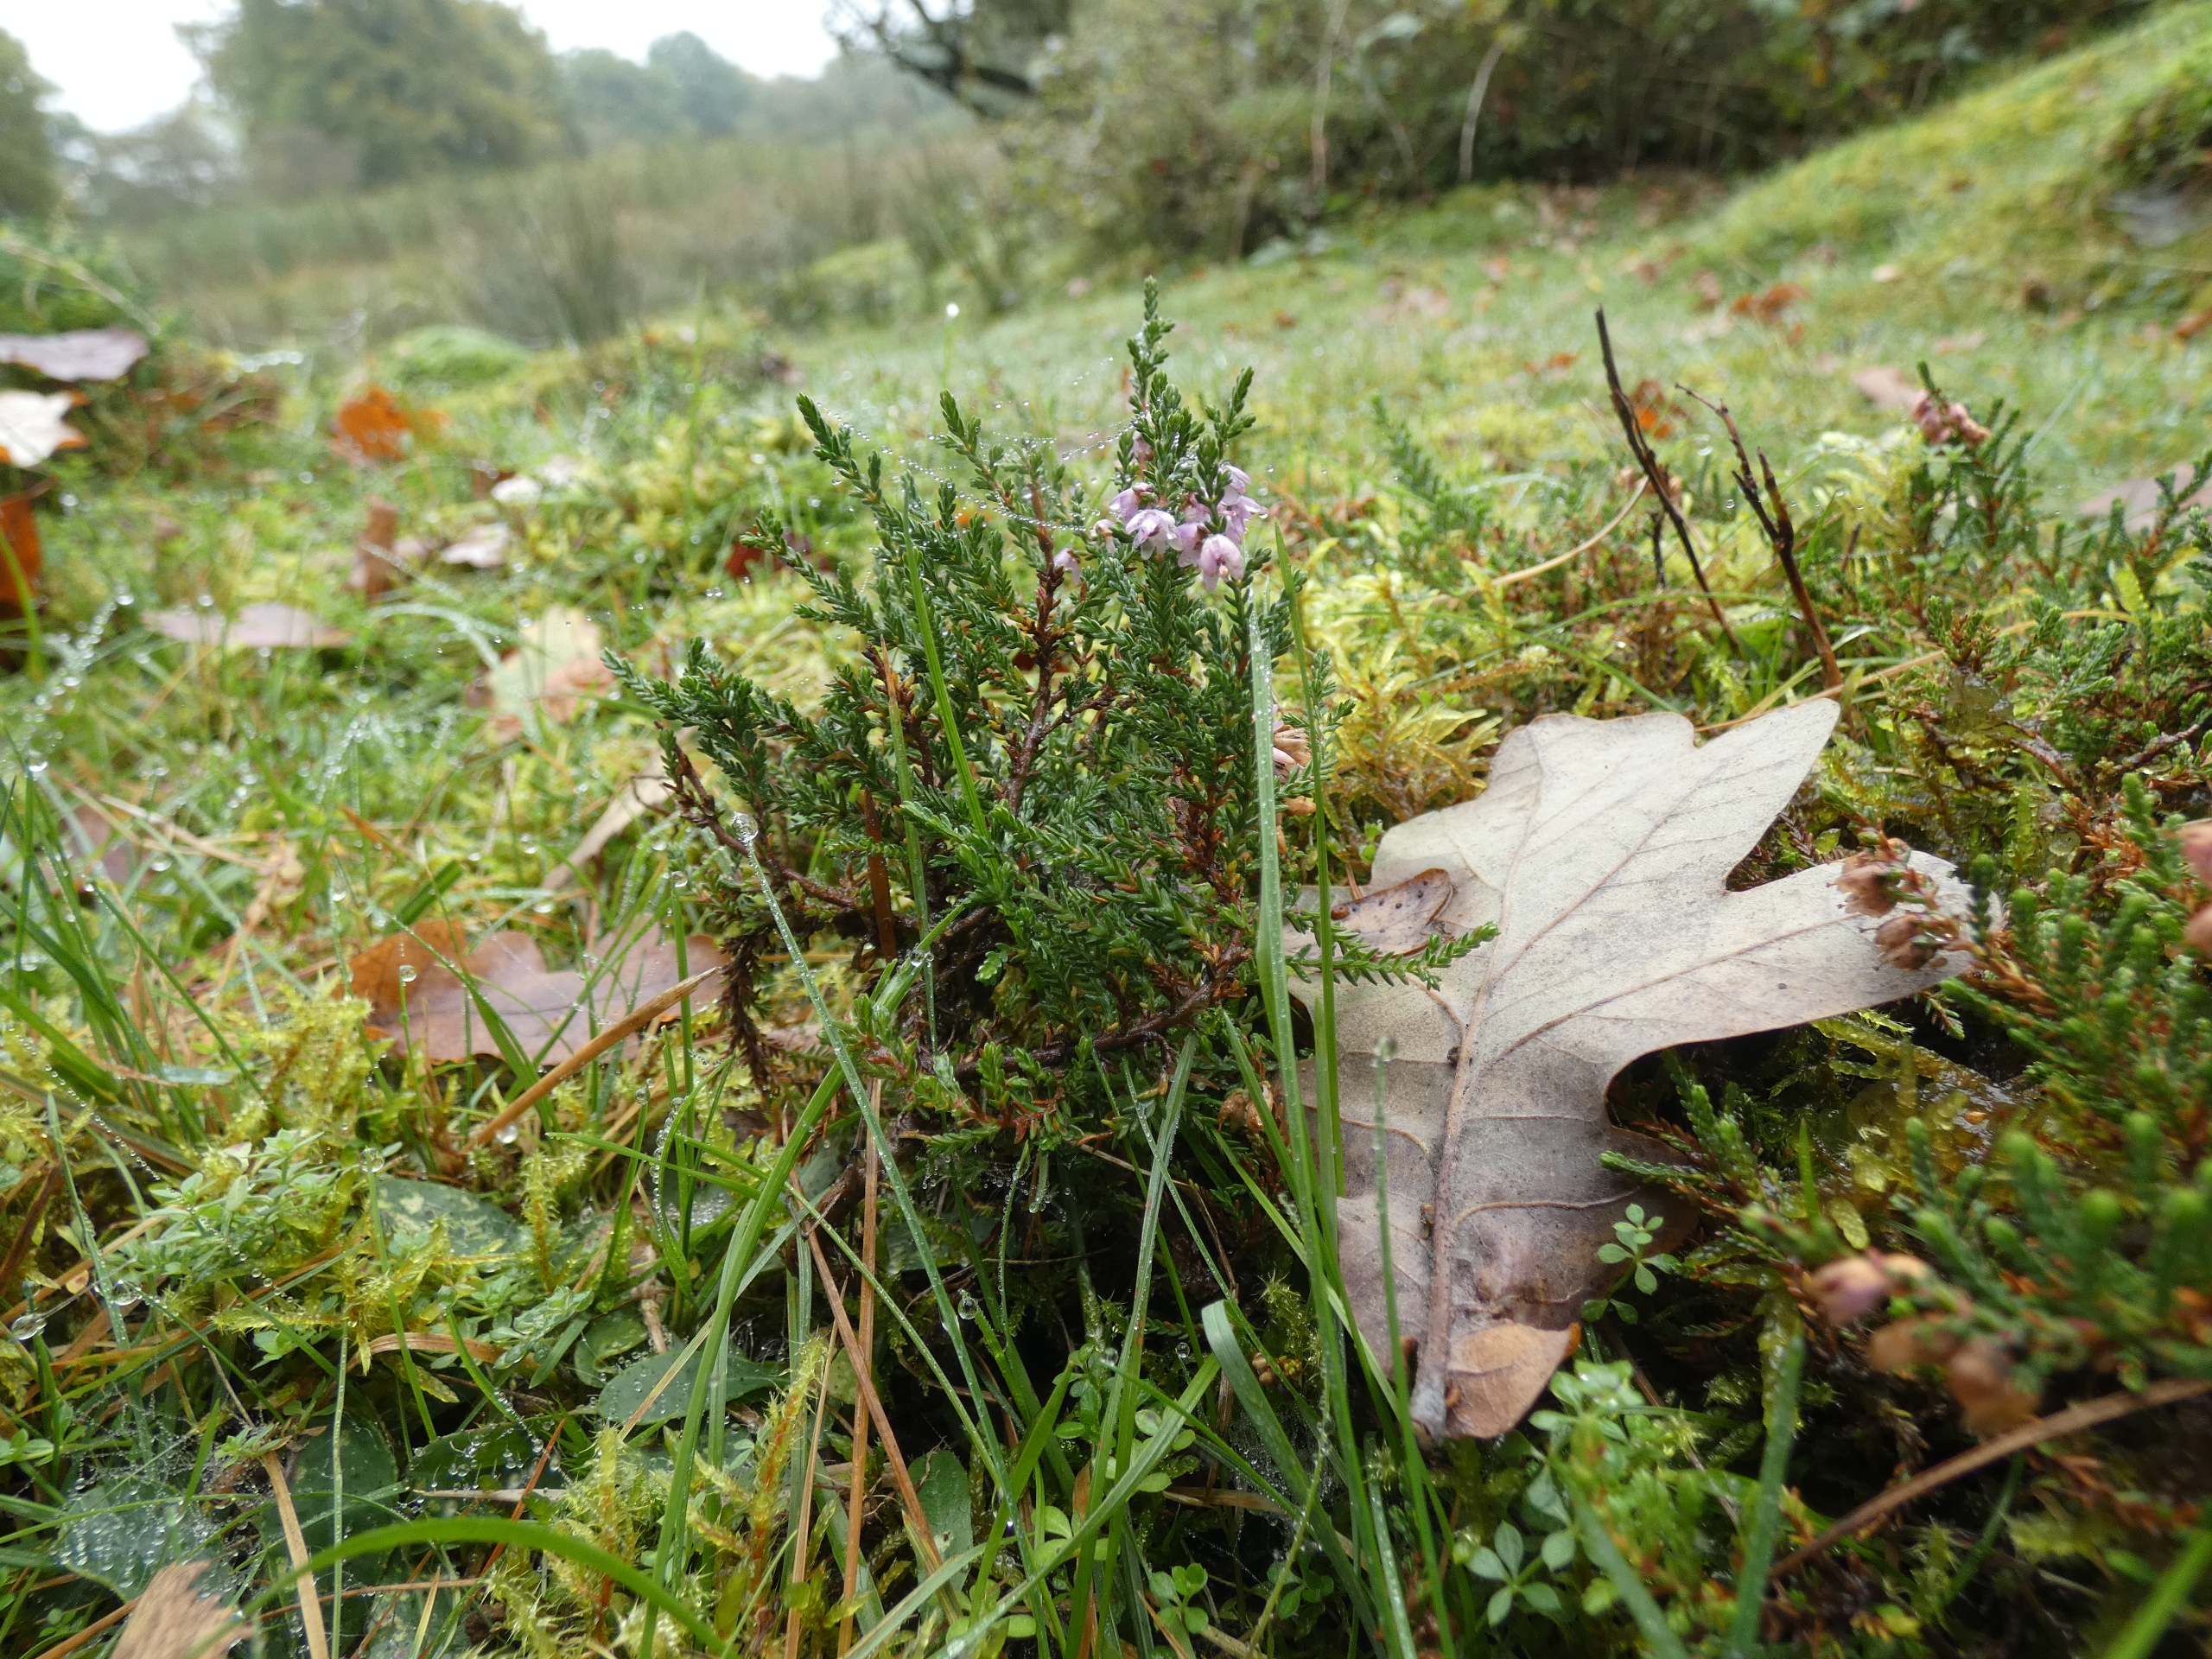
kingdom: Plantae
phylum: Tracheophyta
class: Magnoliopsida
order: Ericales
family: Ericaceae
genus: Calluna
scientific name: Calluna vulgaris
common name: Hedelyng
